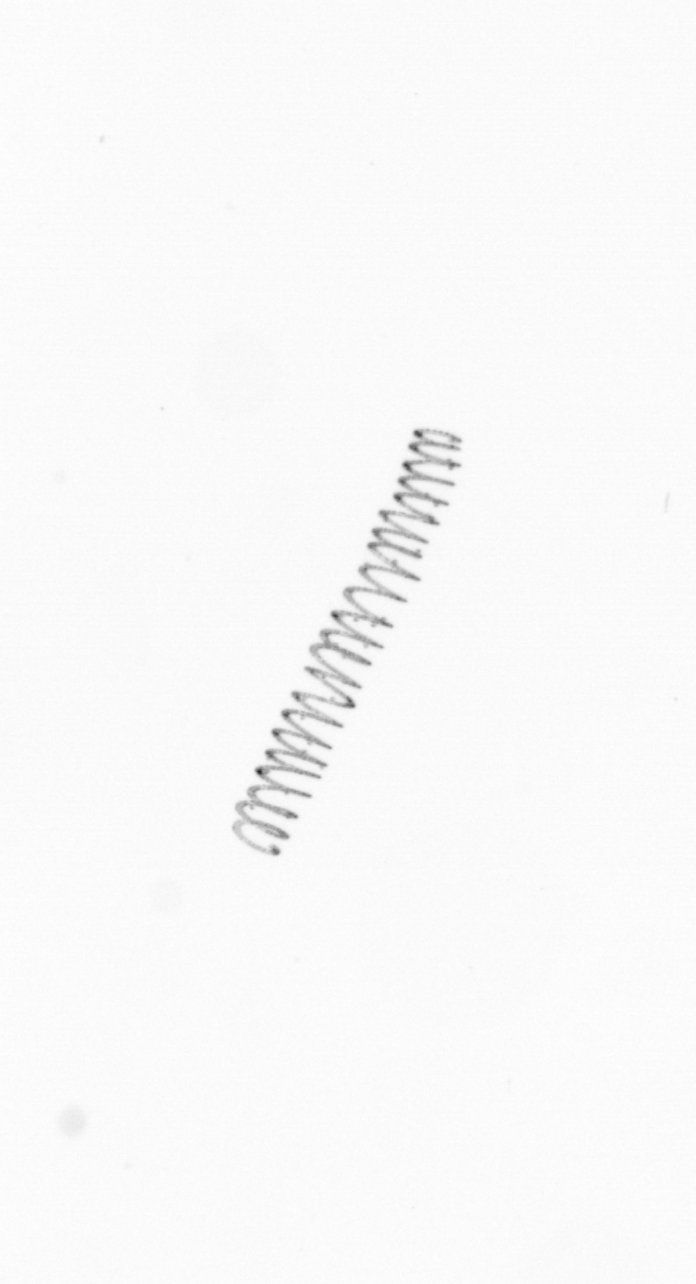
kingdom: Chromista
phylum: Ochrophyta
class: Bacillariophyceae
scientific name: Bacillariophyceae
